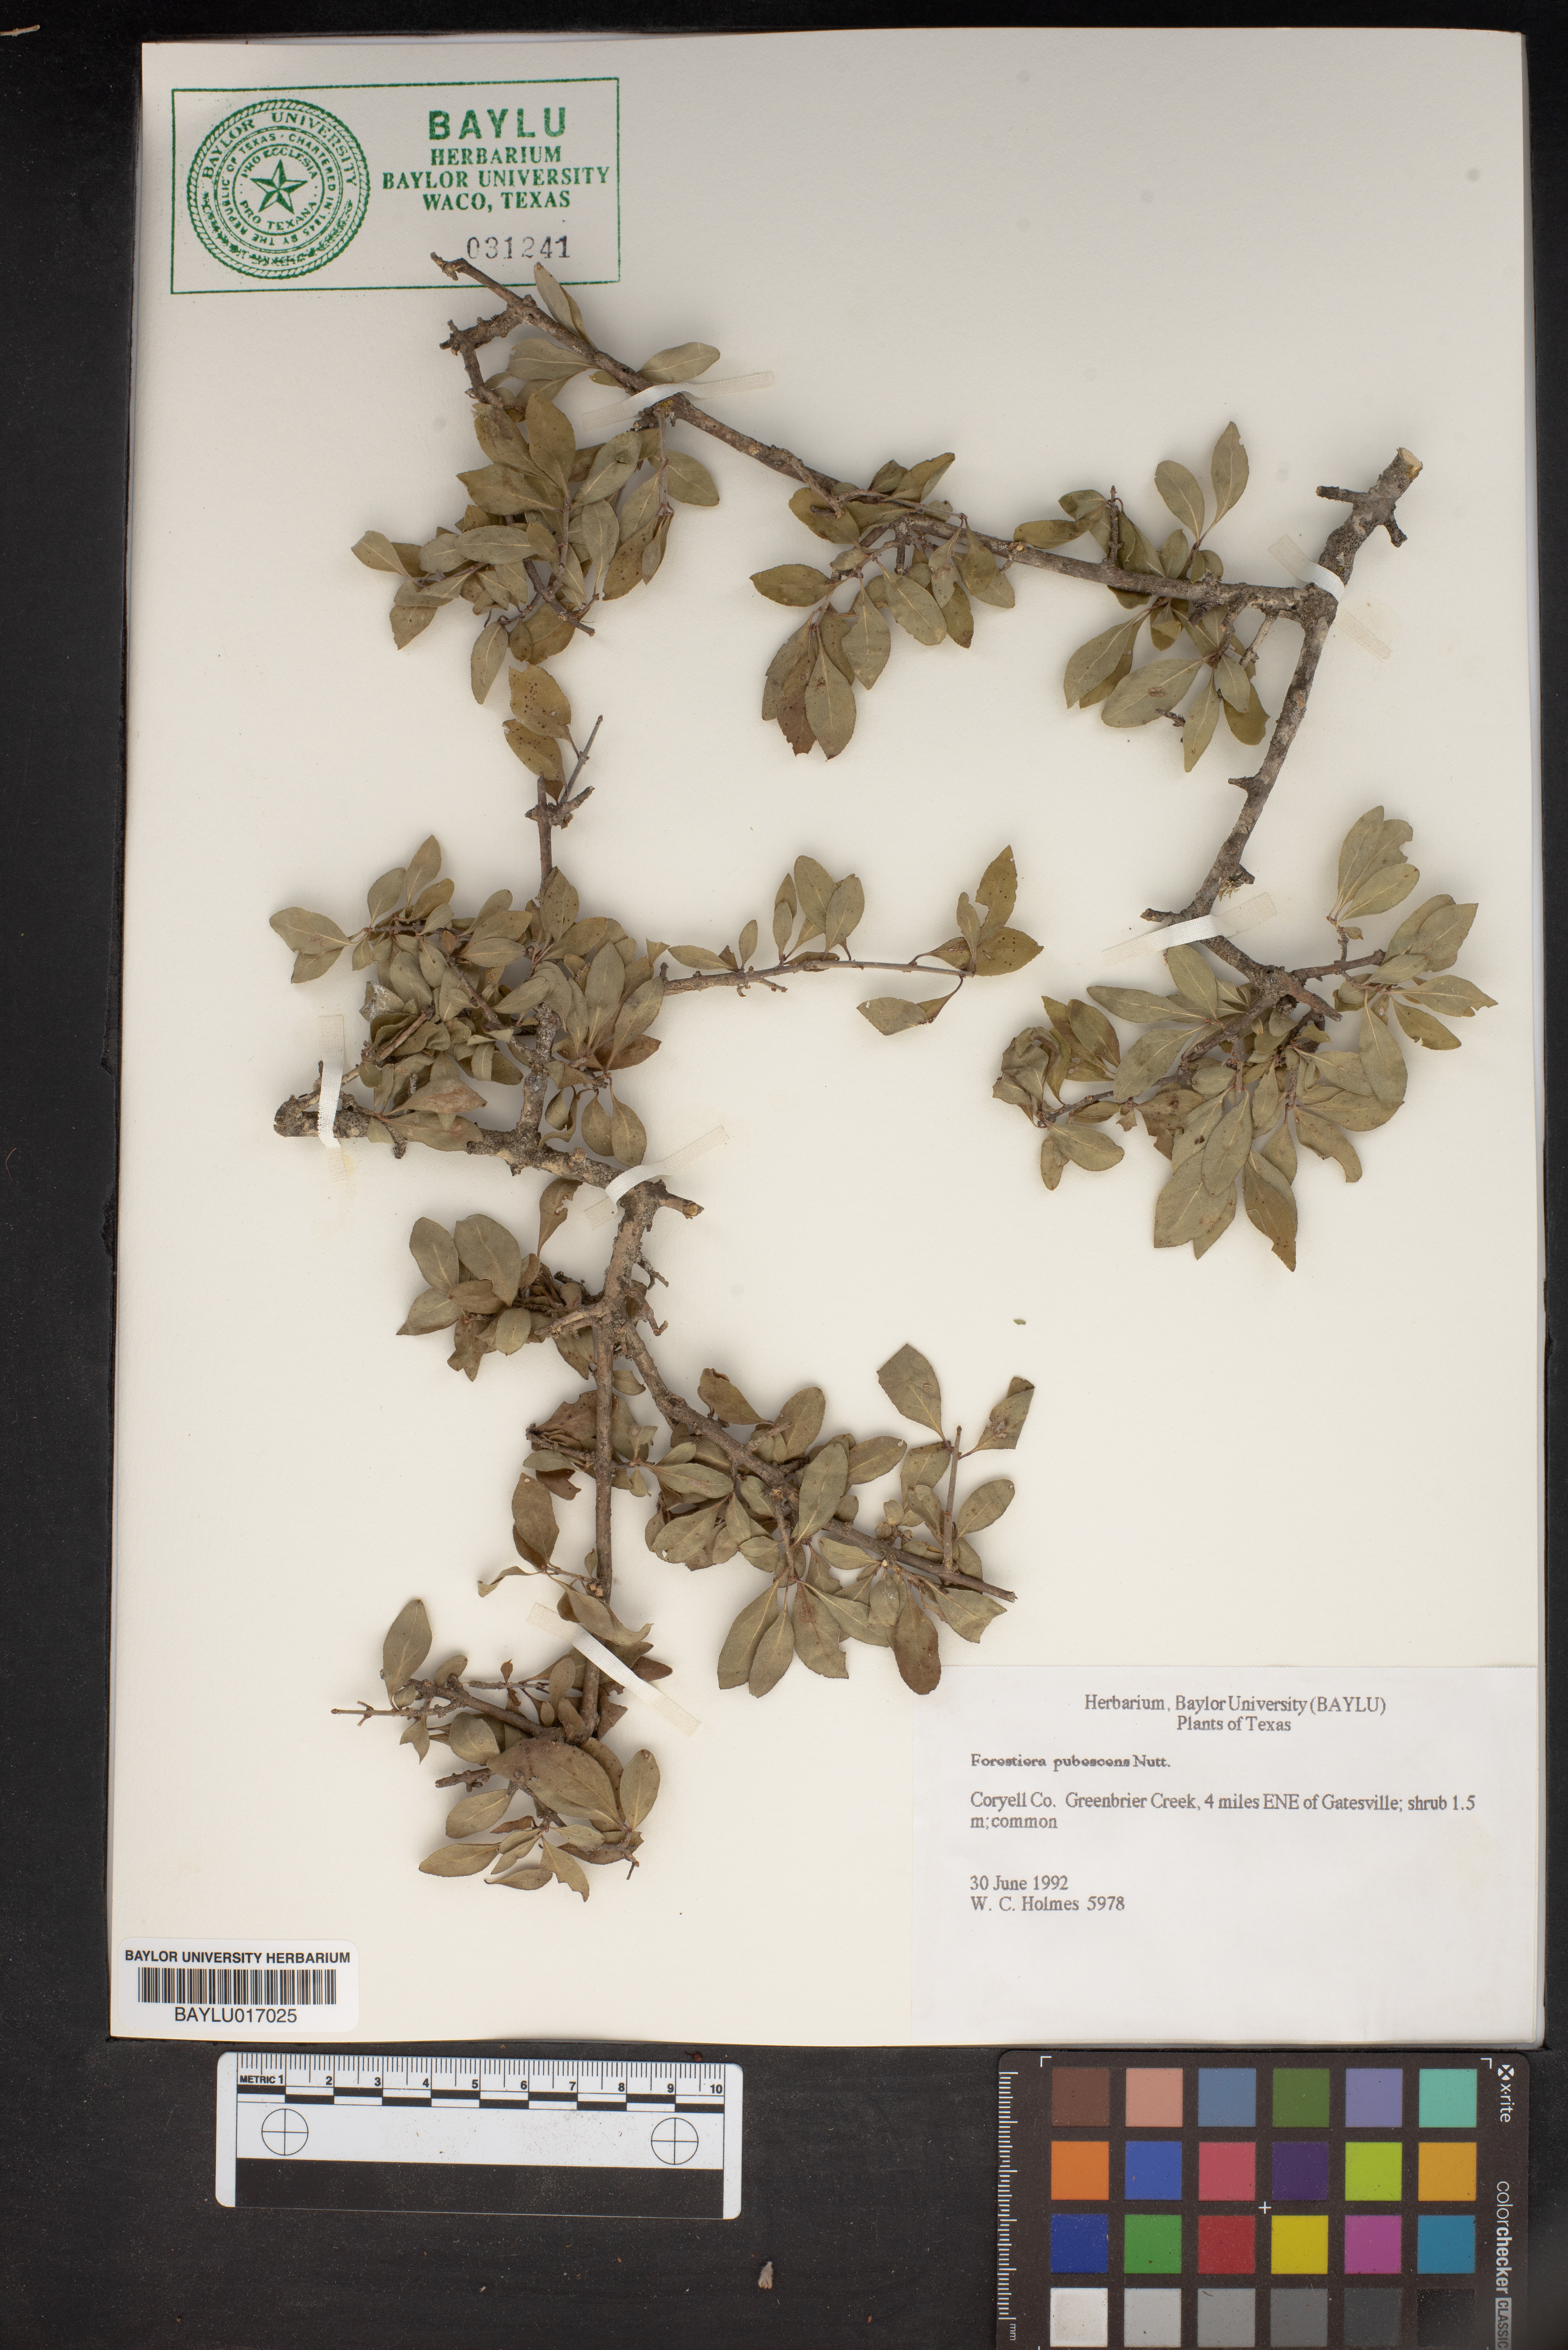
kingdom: Plantae
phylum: Tracheophyta
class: Magnoliopsida
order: Lamiales
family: Oleaceae
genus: Forestiera
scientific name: Forestiera pubescens
